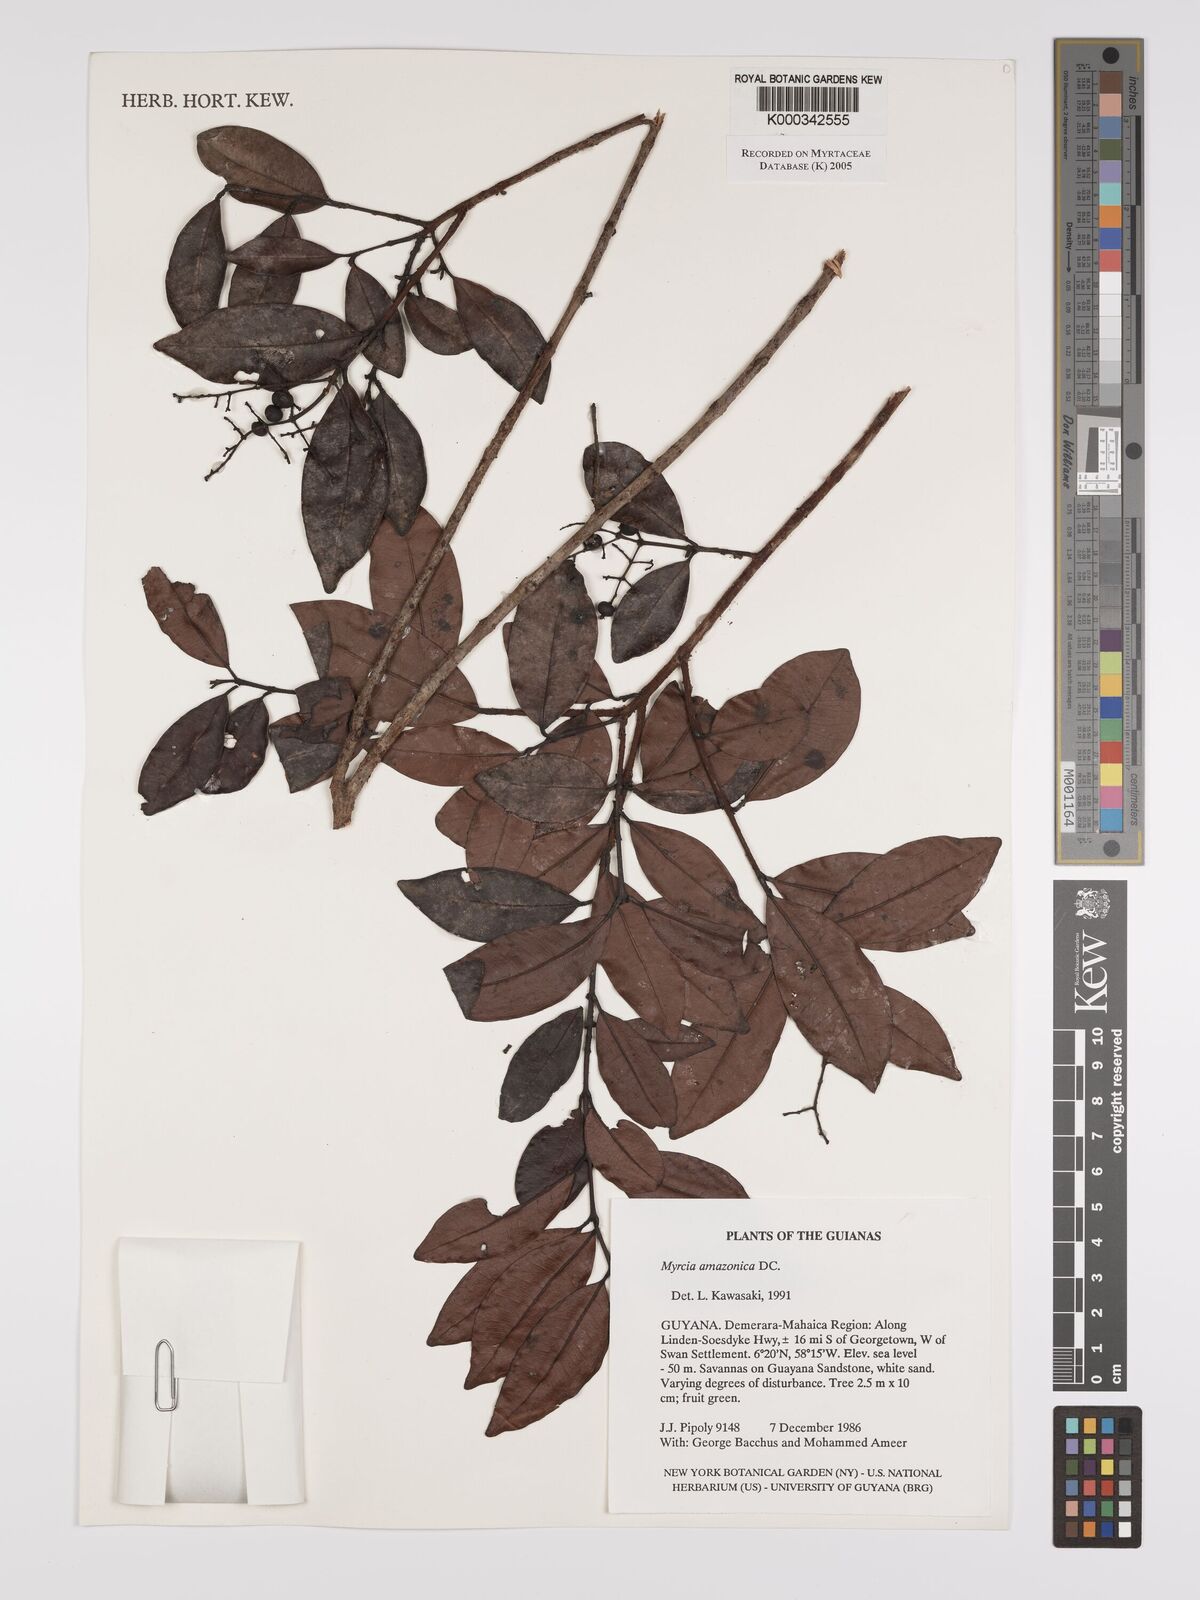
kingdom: Plantae
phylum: Tracheophyta
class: Magnoliopsida
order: Myrtales
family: Myrtaceae
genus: Myrcia
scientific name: Myrcia amazonica
